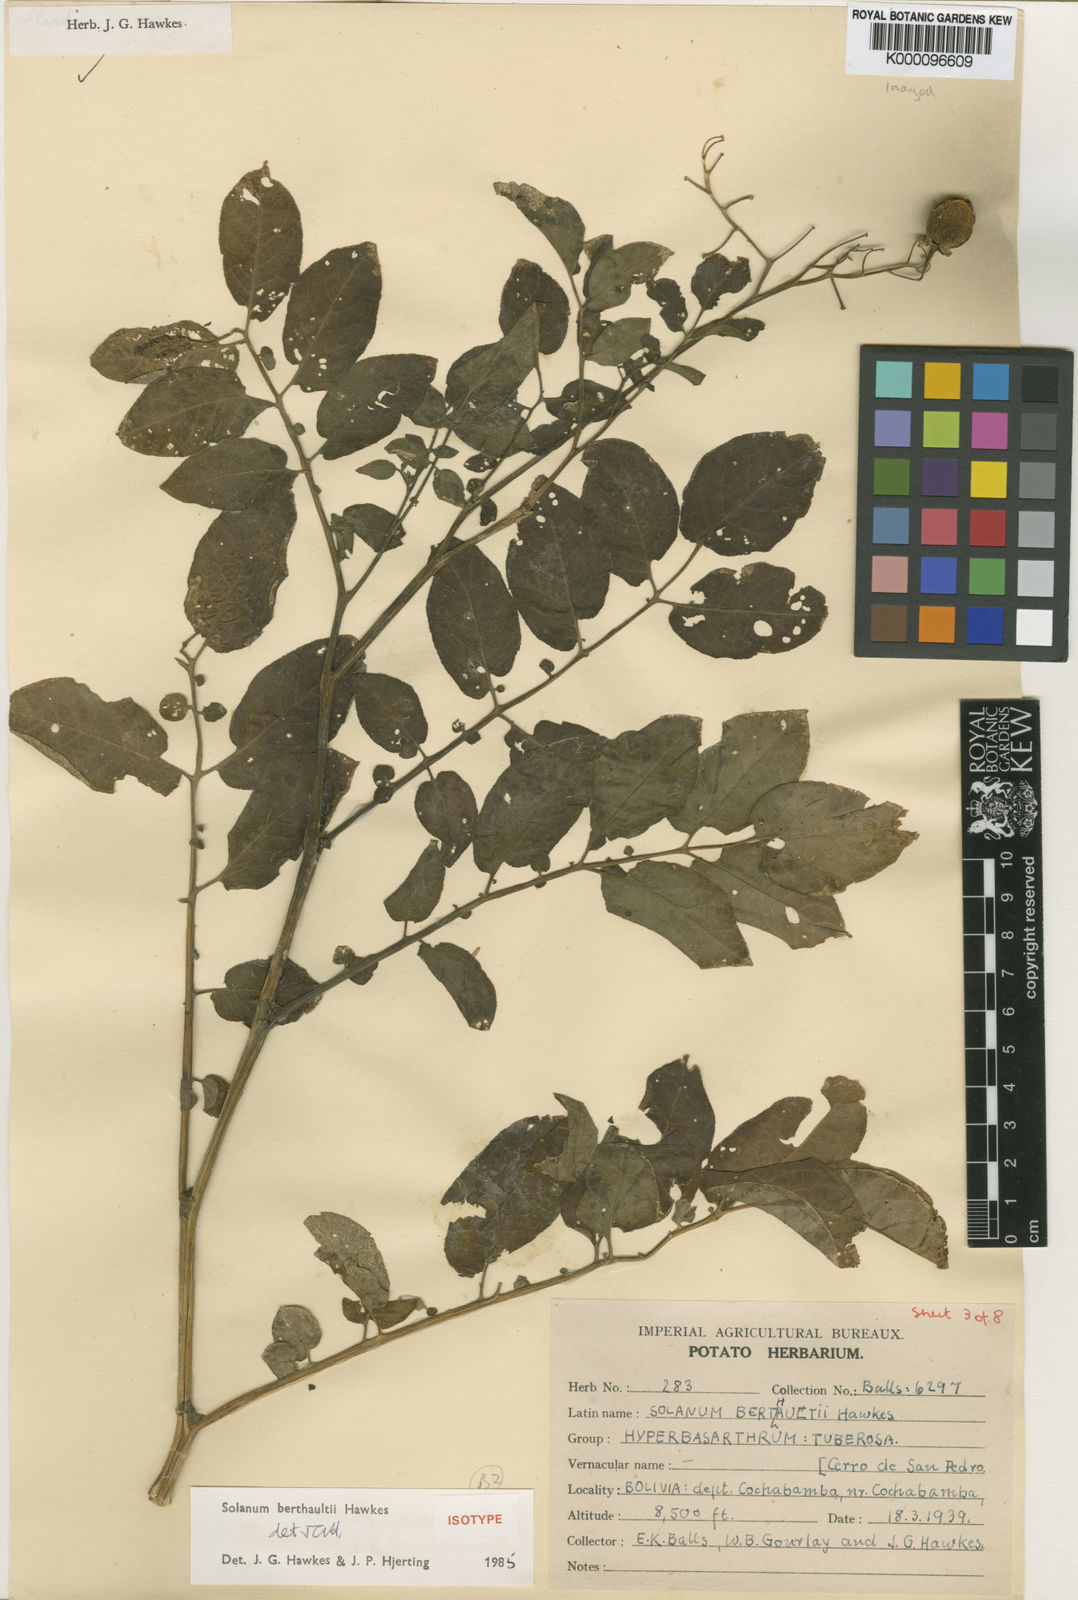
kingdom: Plantae
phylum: Tracheophyta
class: Magnoliopsida
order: Solanales
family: Solanaceae
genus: Solanum
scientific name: Solanum berthaultii
